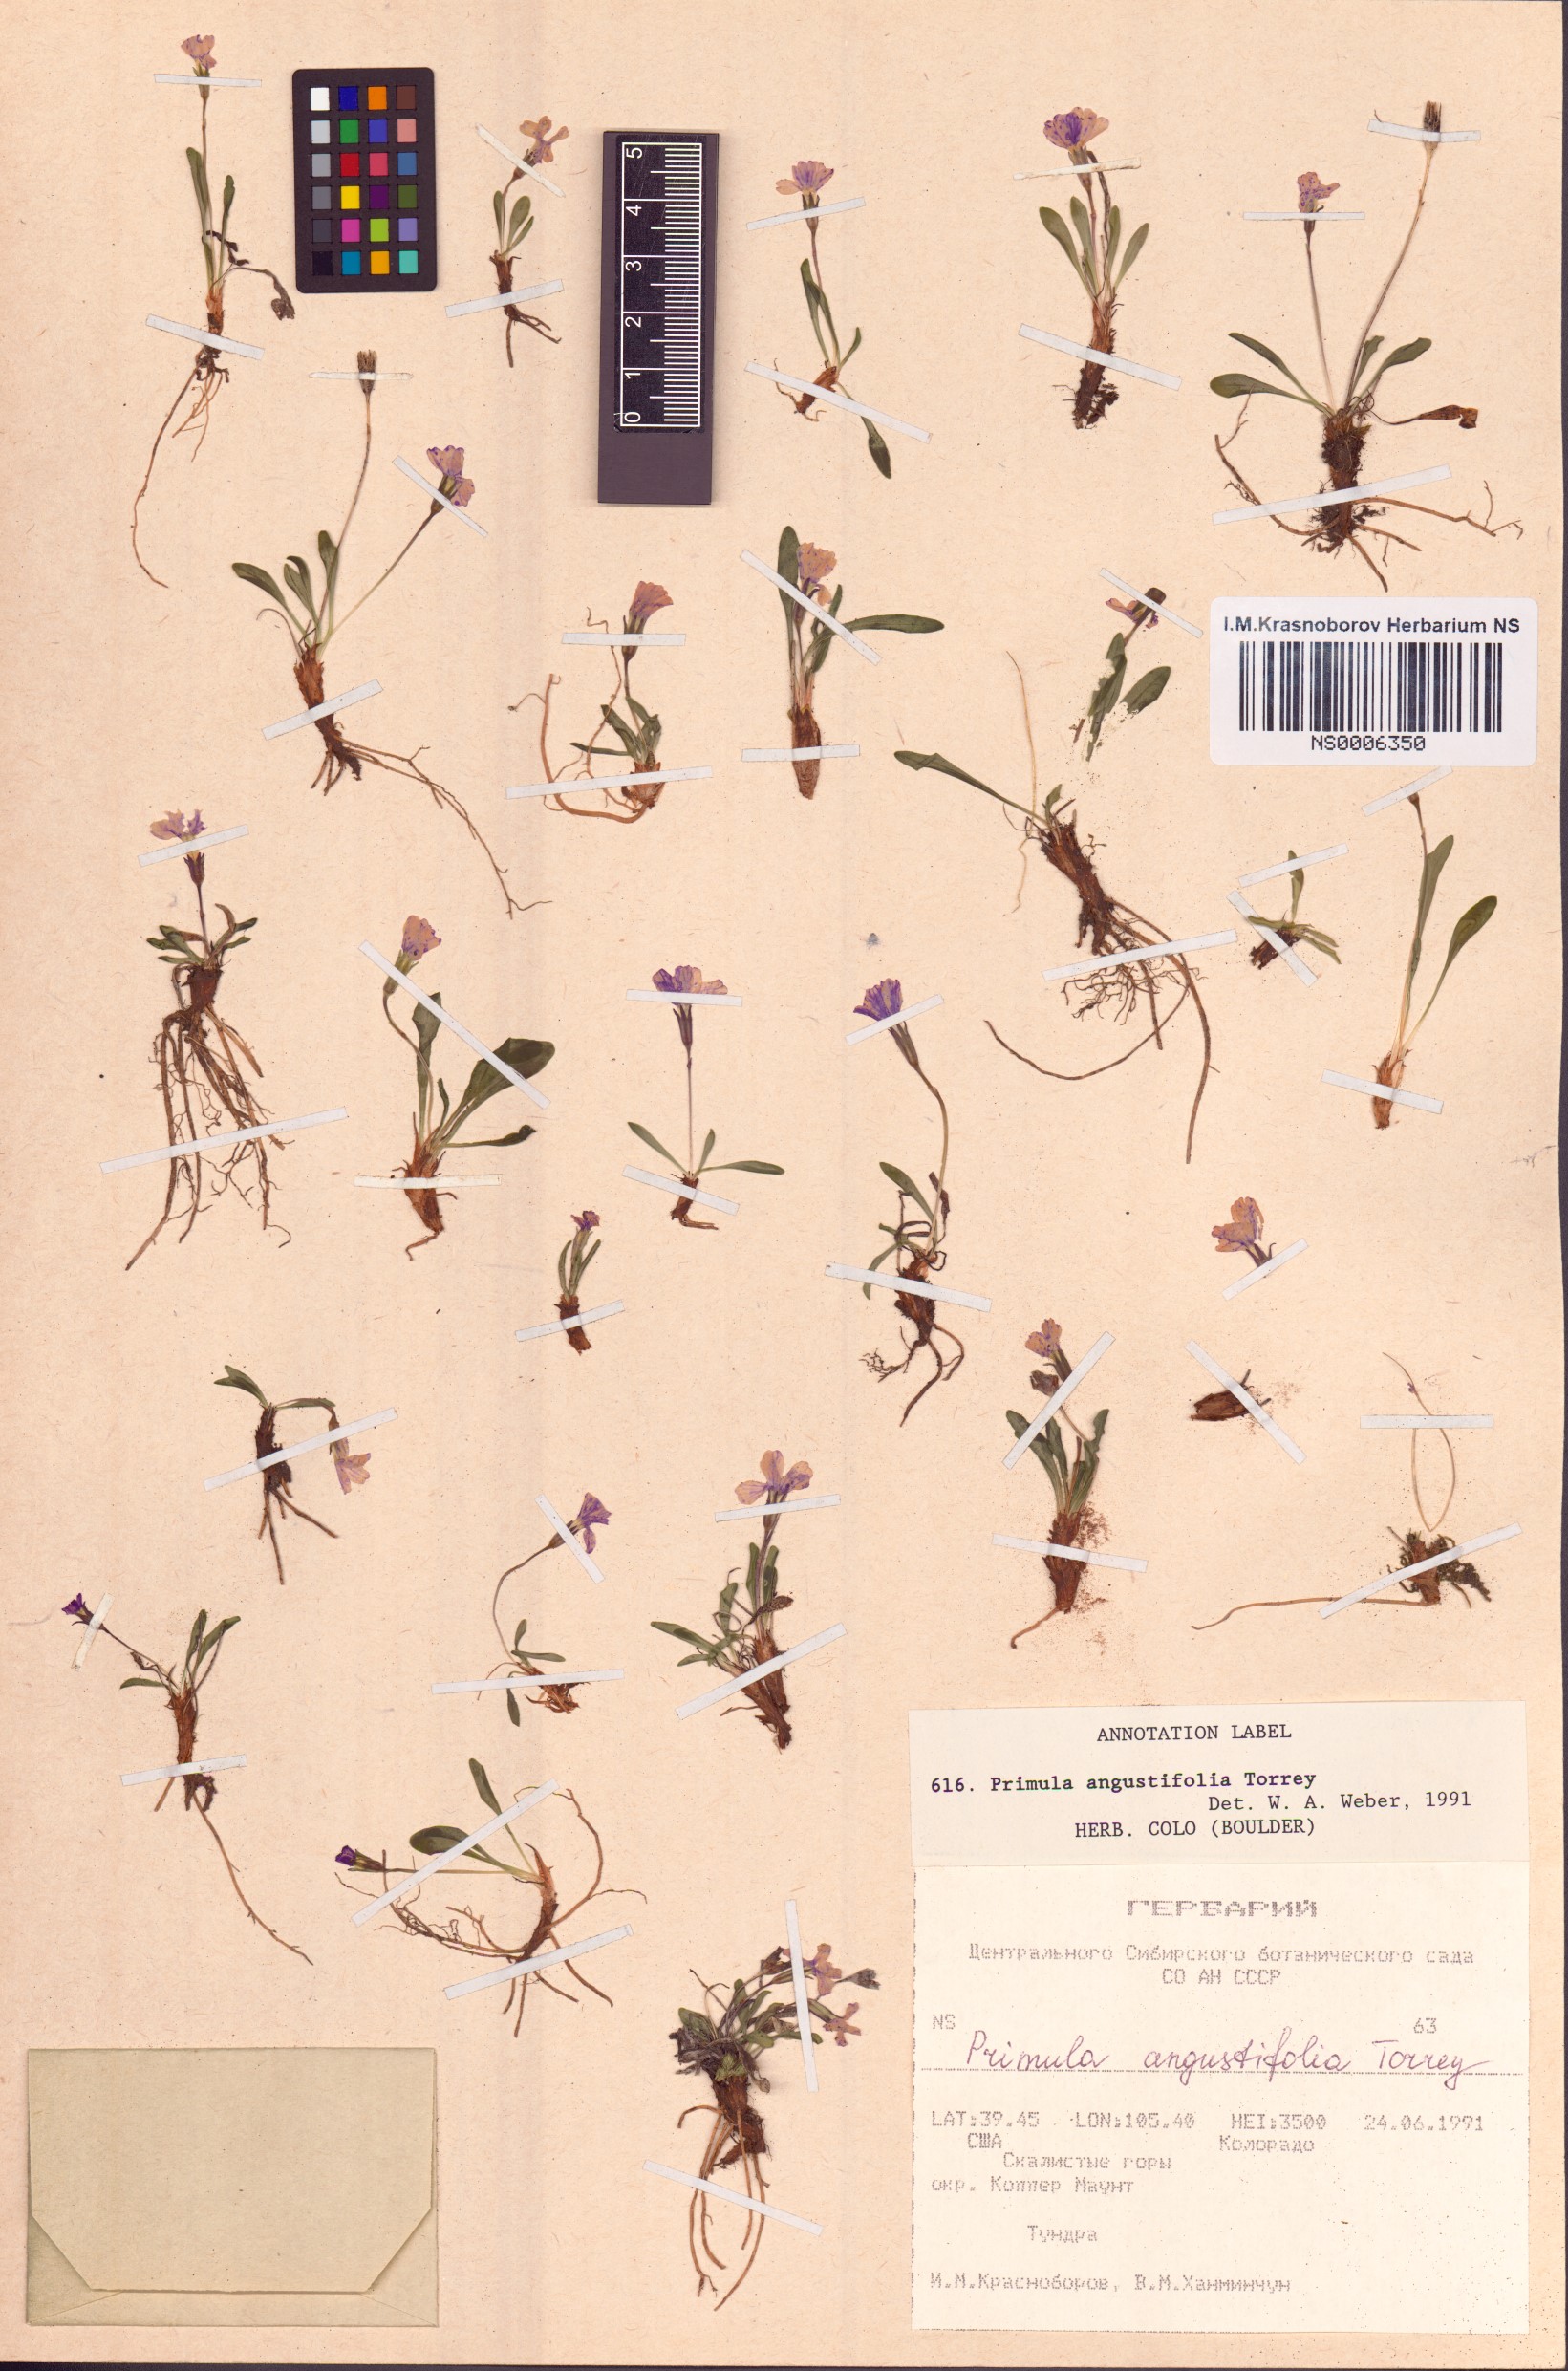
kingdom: Plantae
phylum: Tracheophyta
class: Magnoliopsida
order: Ericales
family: Primulaceae
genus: Primula
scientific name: Primula angustifolia
